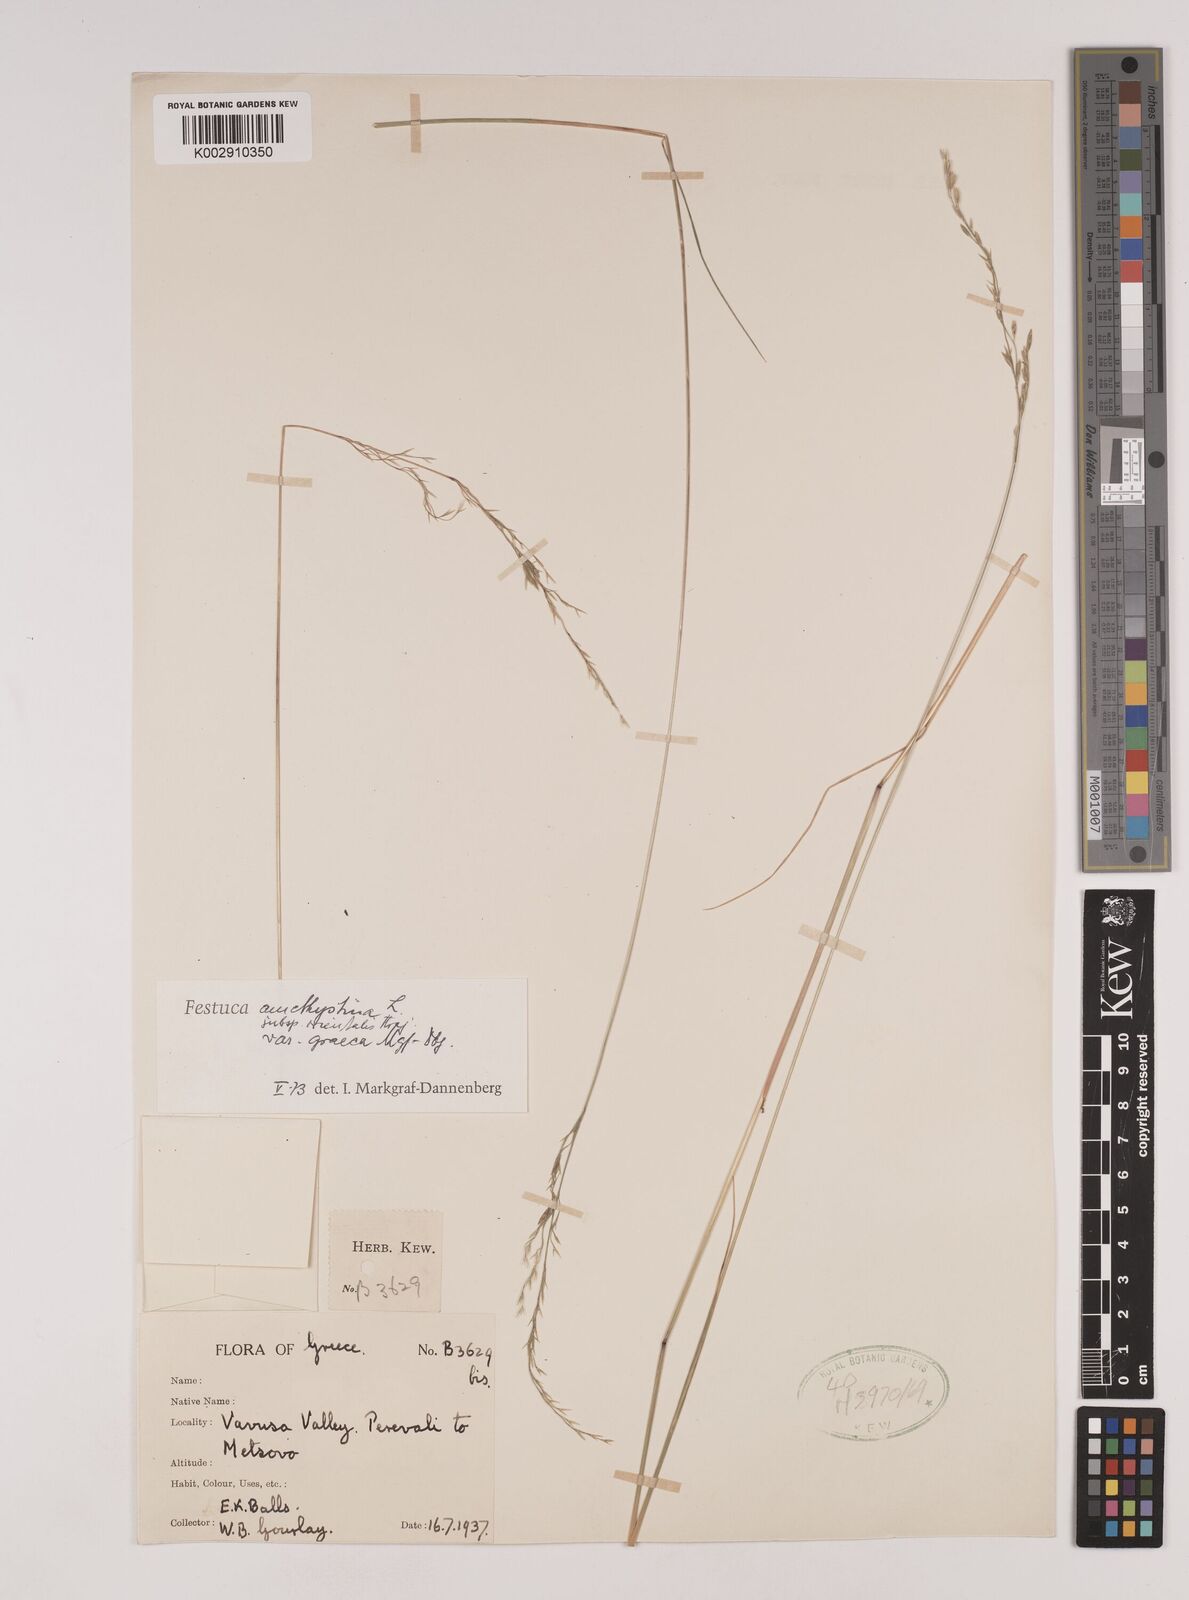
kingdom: Plantae
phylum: Tracheophyta
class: Liliopsida
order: Poales
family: Poaceae
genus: Festuca
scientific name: Festuca amethystina
